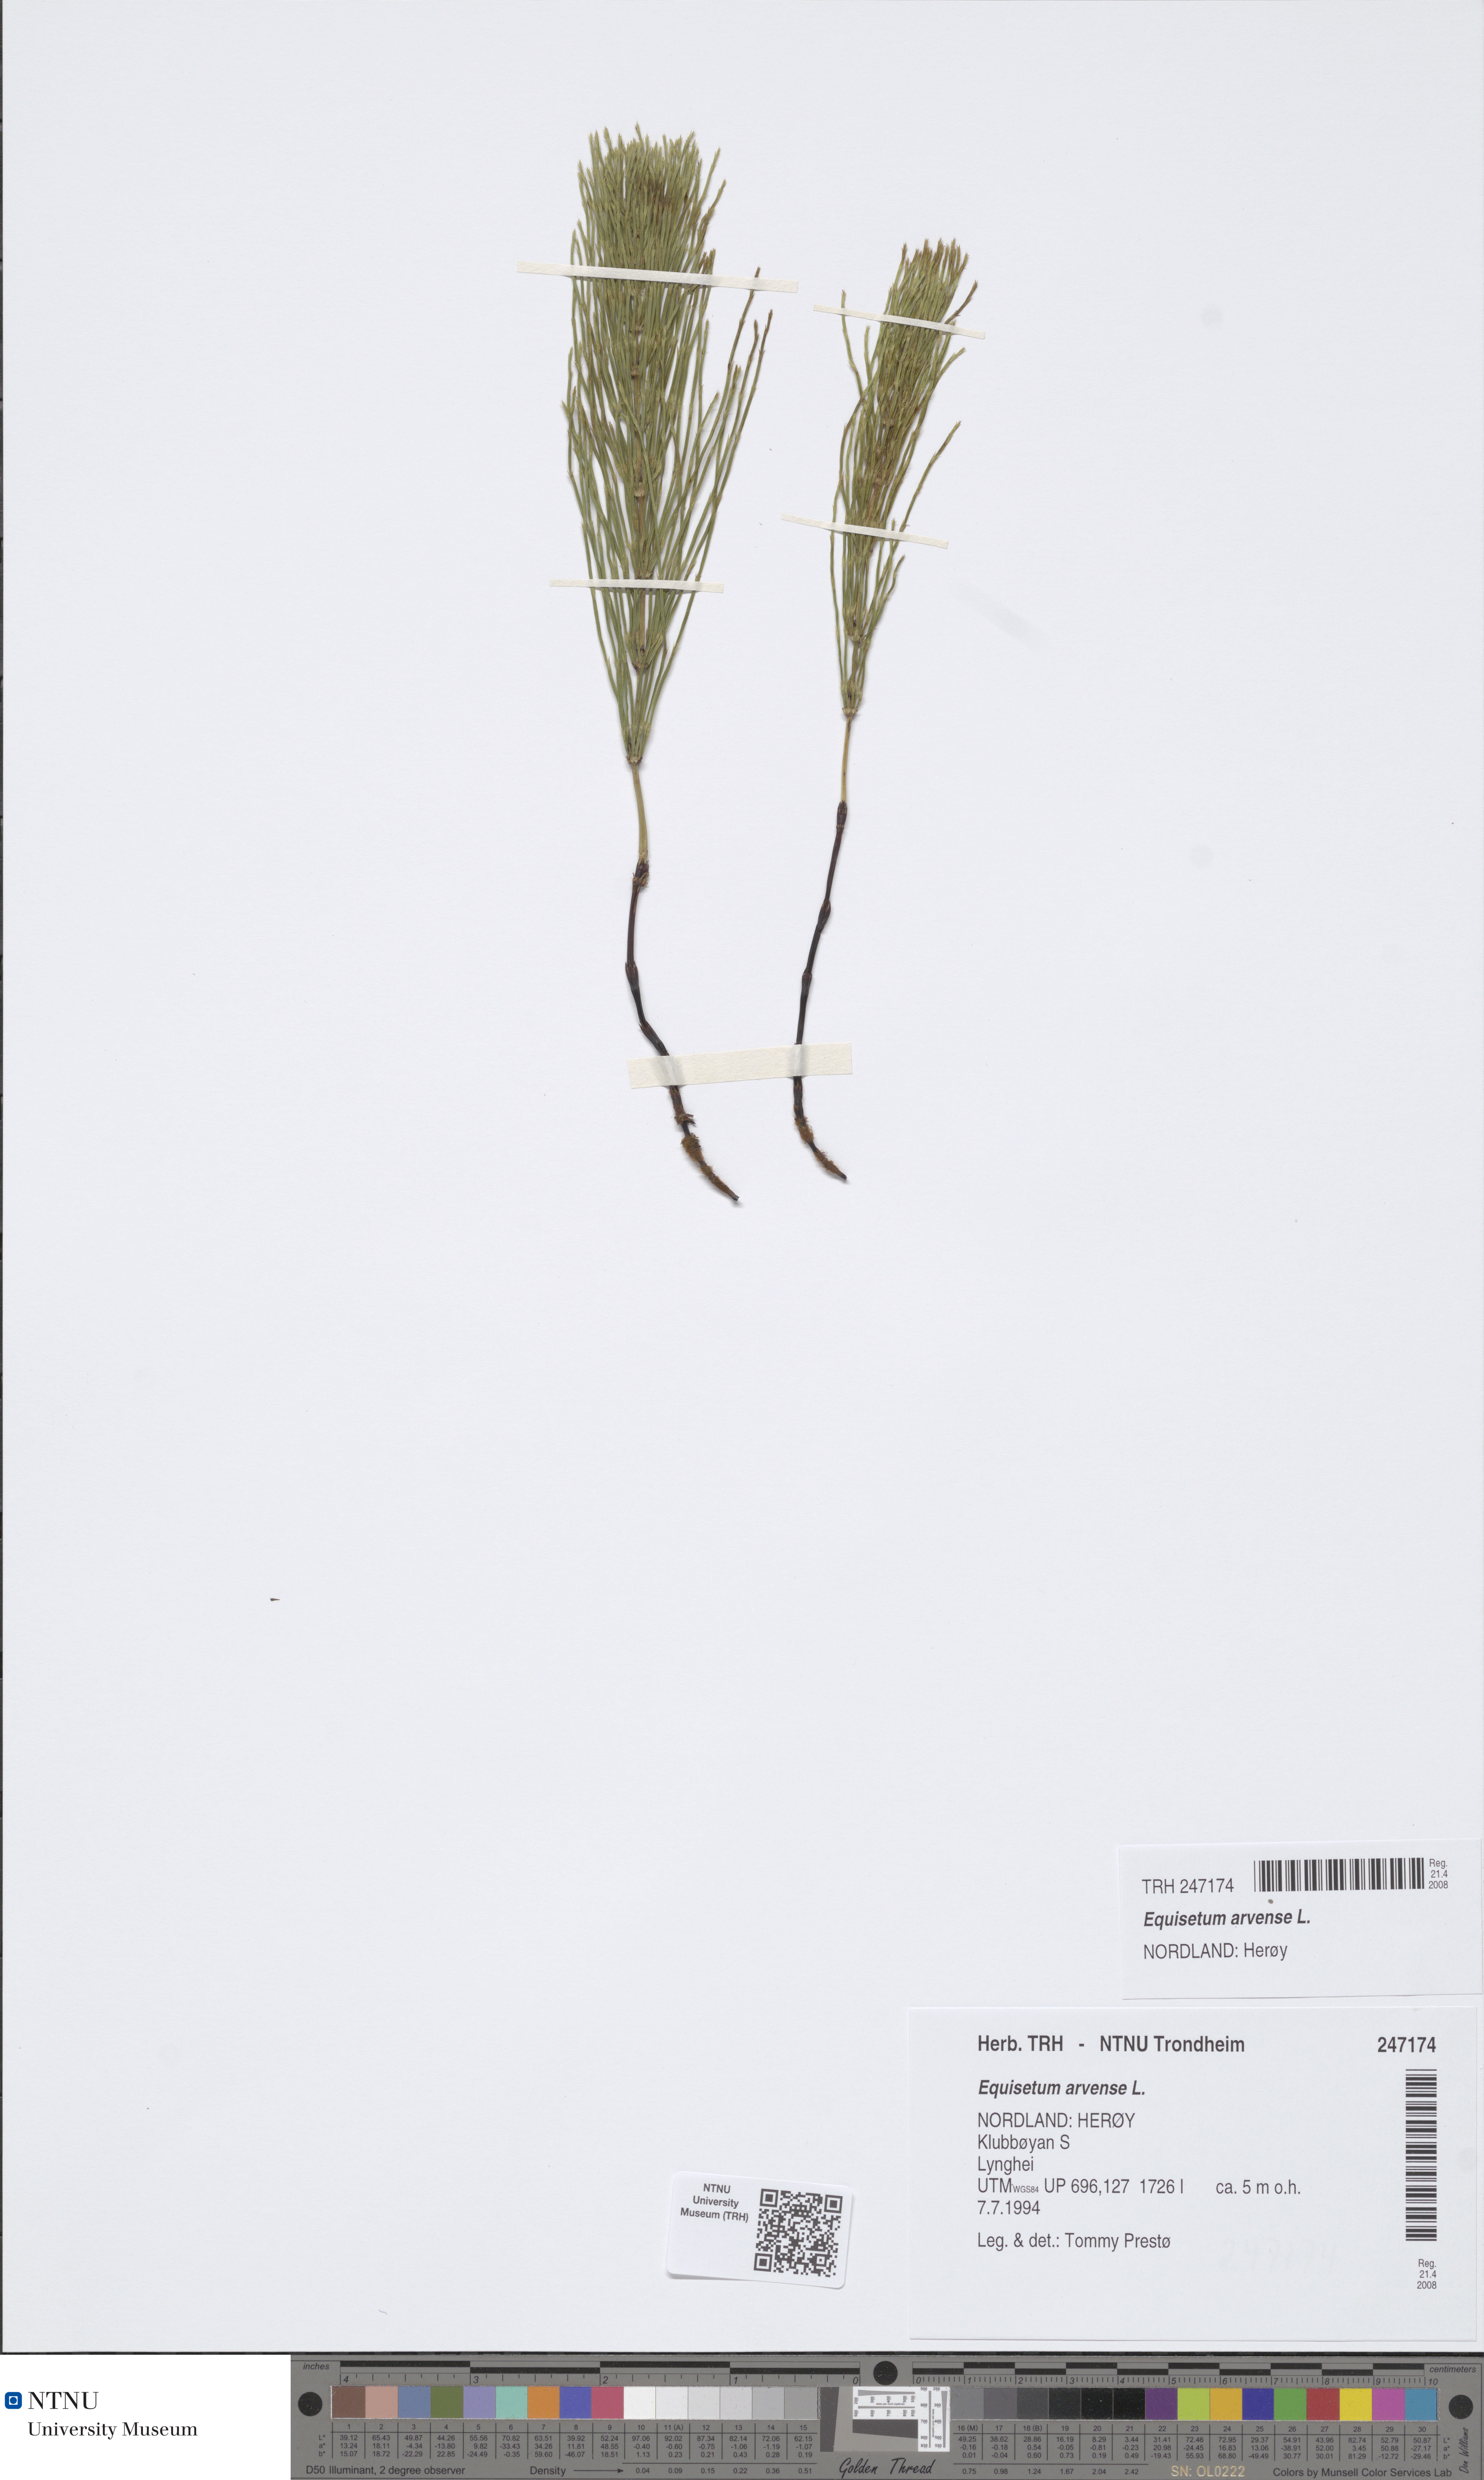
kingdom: Plantae
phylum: Tracheophyta
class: Polypodiopsida
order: Equisetales
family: Equisetaceae
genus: Equisetum
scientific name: Equisetum arvense
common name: Field horsetail
